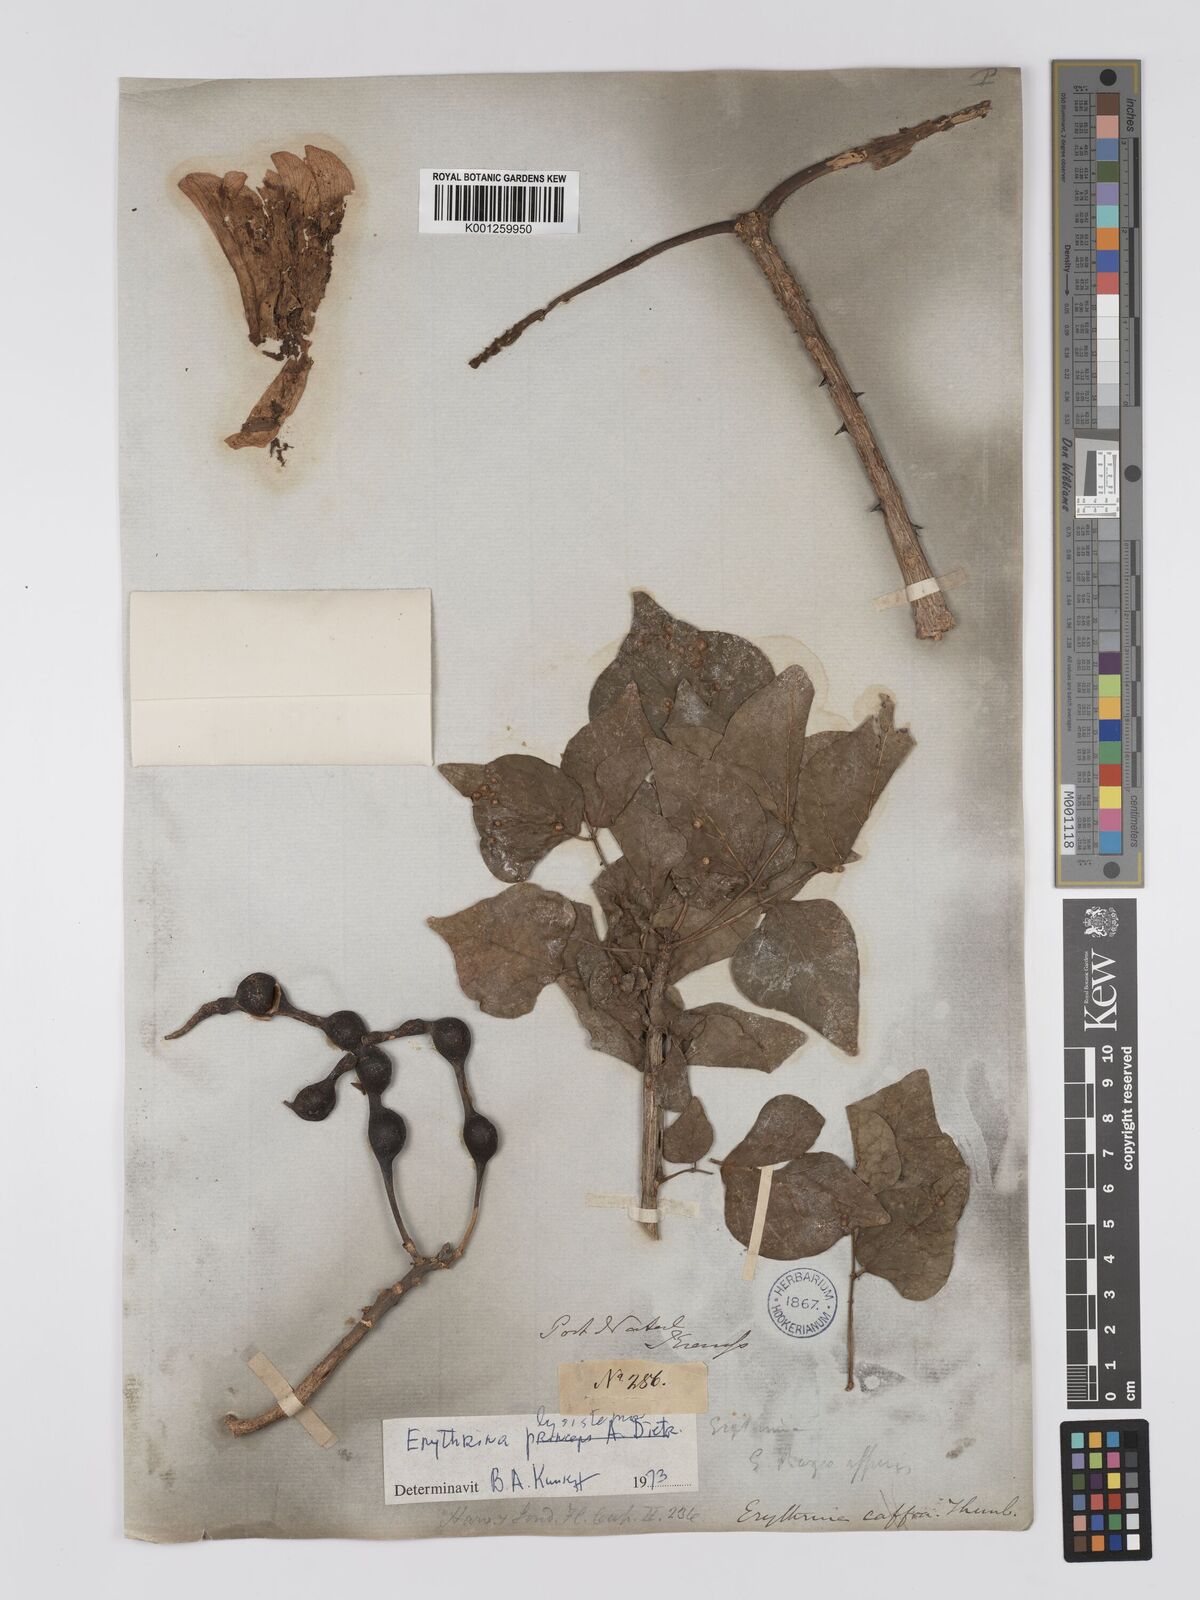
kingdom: Plantae
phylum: Tracheophyta
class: Magnoliopsida
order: Fabales
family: Fabaceae
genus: Erythrina
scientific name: Erythrina lysistemon
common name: Common coral tree
